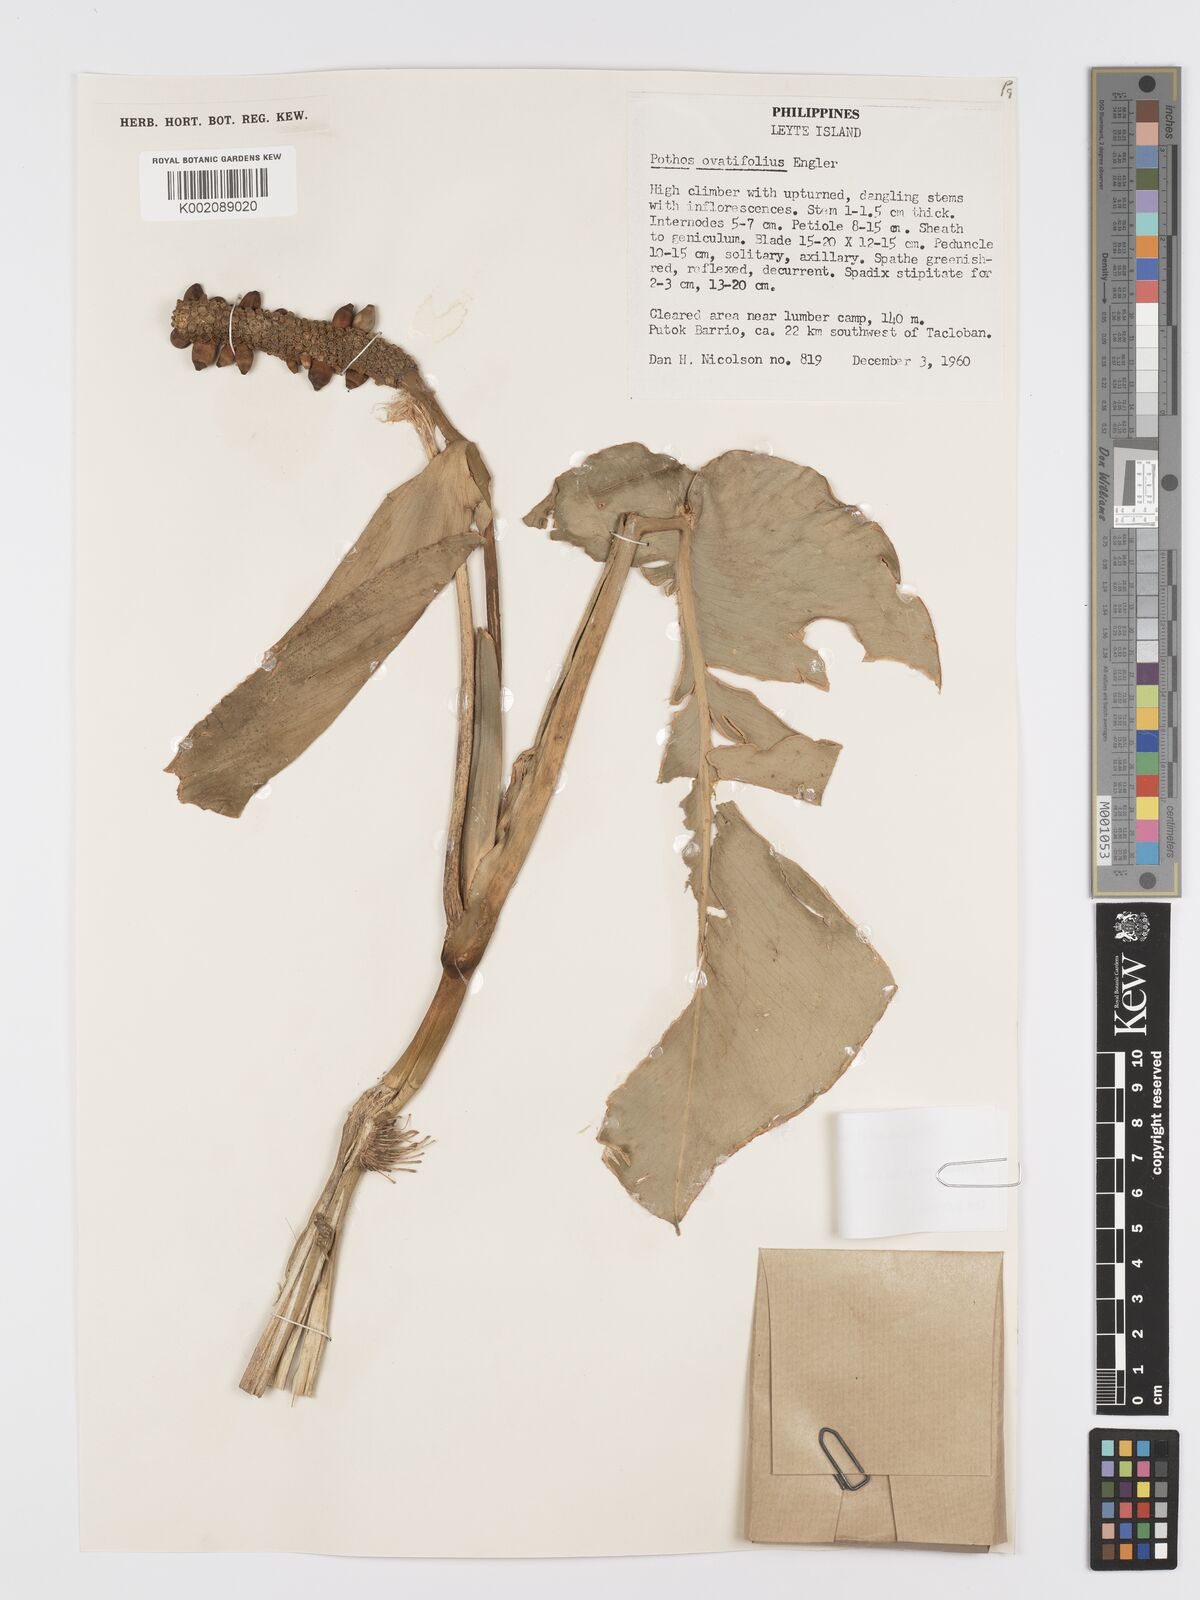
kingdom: Plantae
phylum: Tracheophyta
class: Liliopsida
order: Alismatales
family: Araceae
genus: Pothos
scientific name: Pothos ovatifolius
